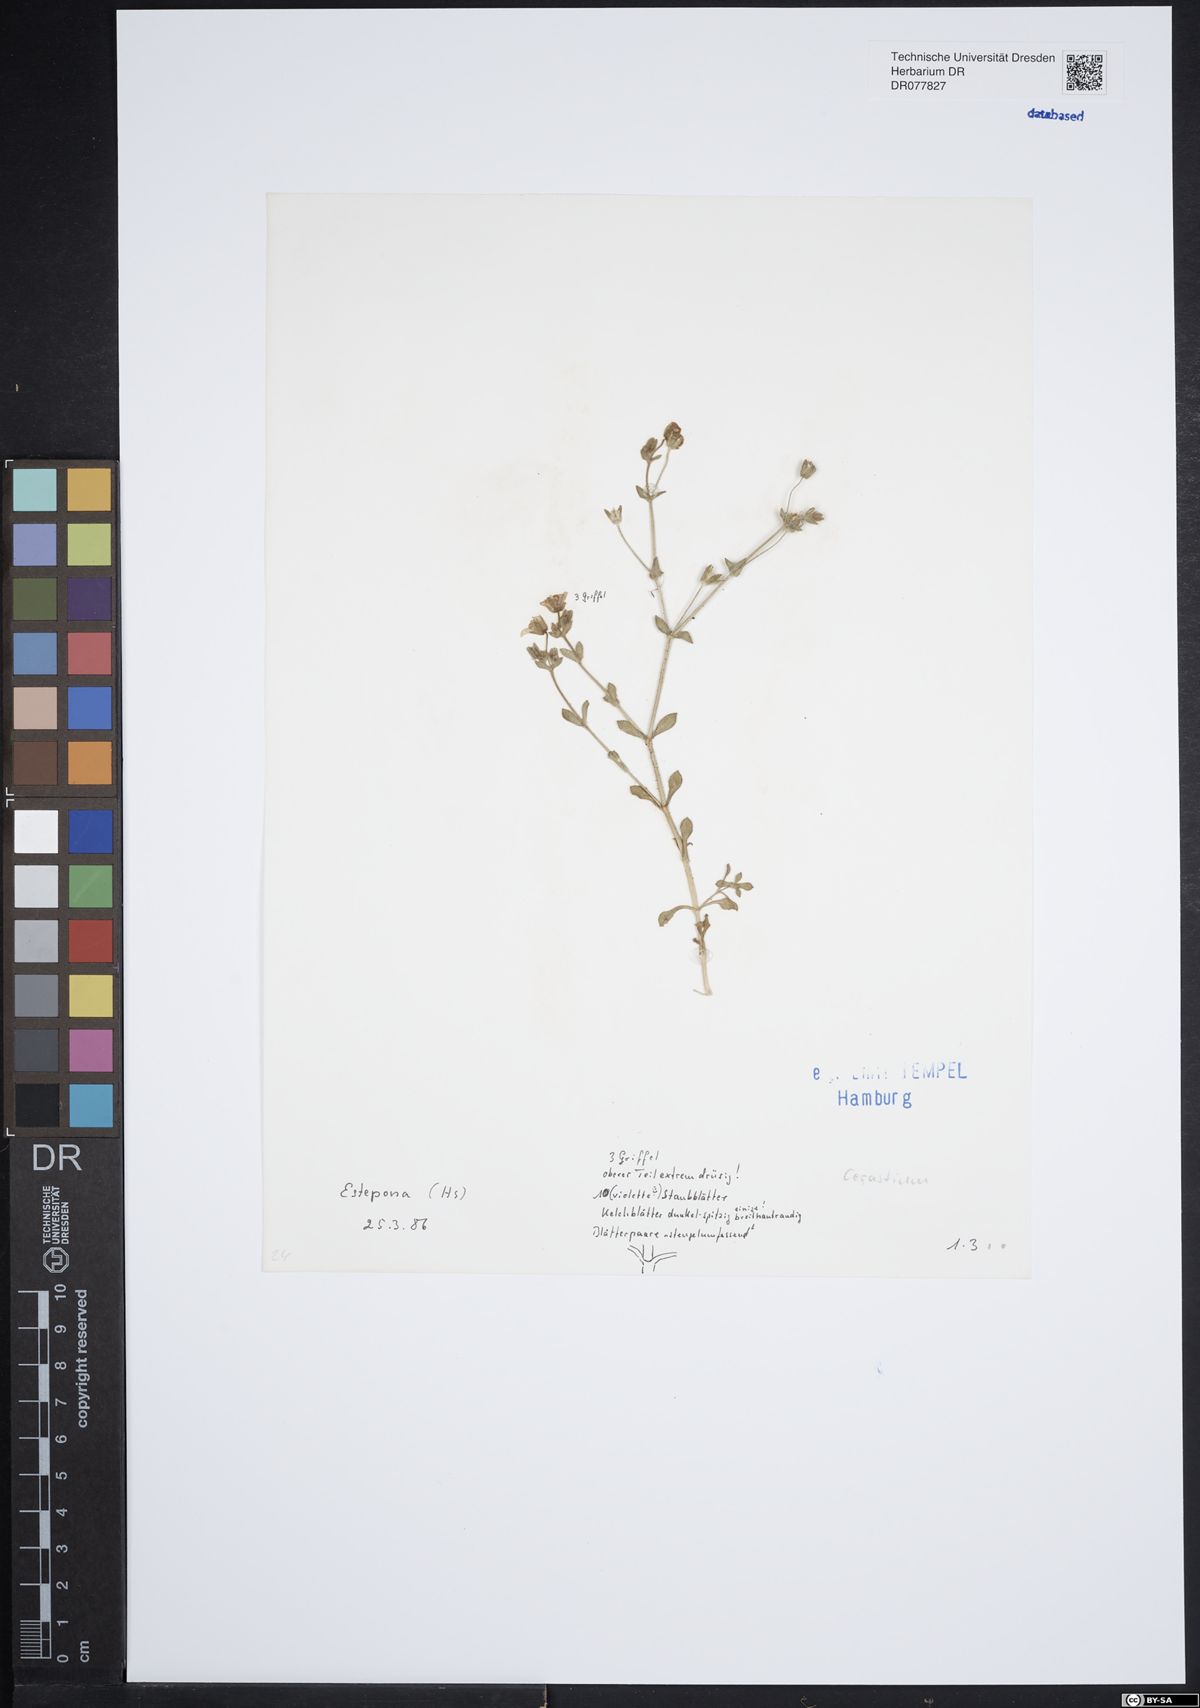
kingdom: Plantae
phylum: Tracheophyta
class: Magnoliopsida
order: Caryophyllales
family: Caryophyllaceae
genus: Cerastium
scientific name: Cerastium
